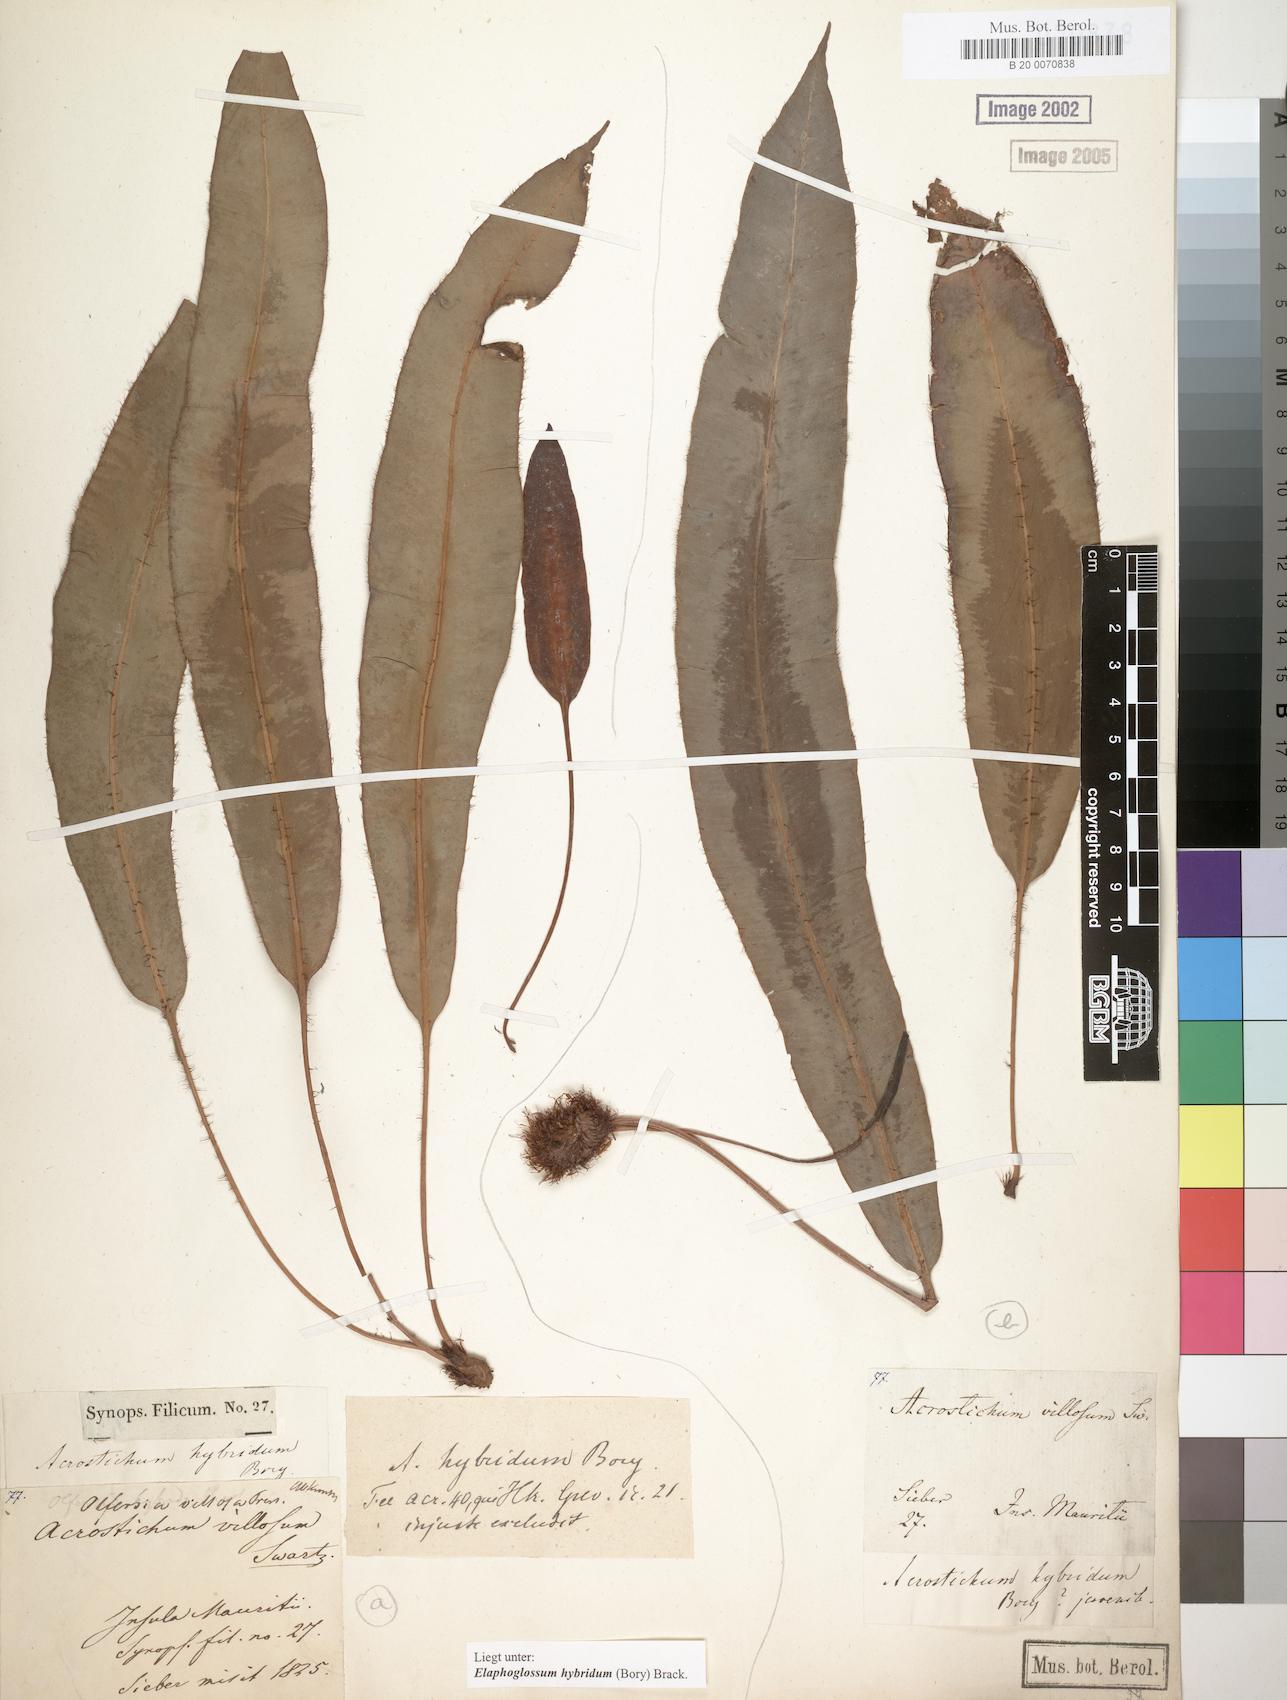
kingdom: Plantae
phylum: Tracheophyta
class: Polypodiopsida
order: Polypodiales
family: Dryopteridaceae
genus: Elaphoglossum
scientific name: Elaphoglossum hybridum
